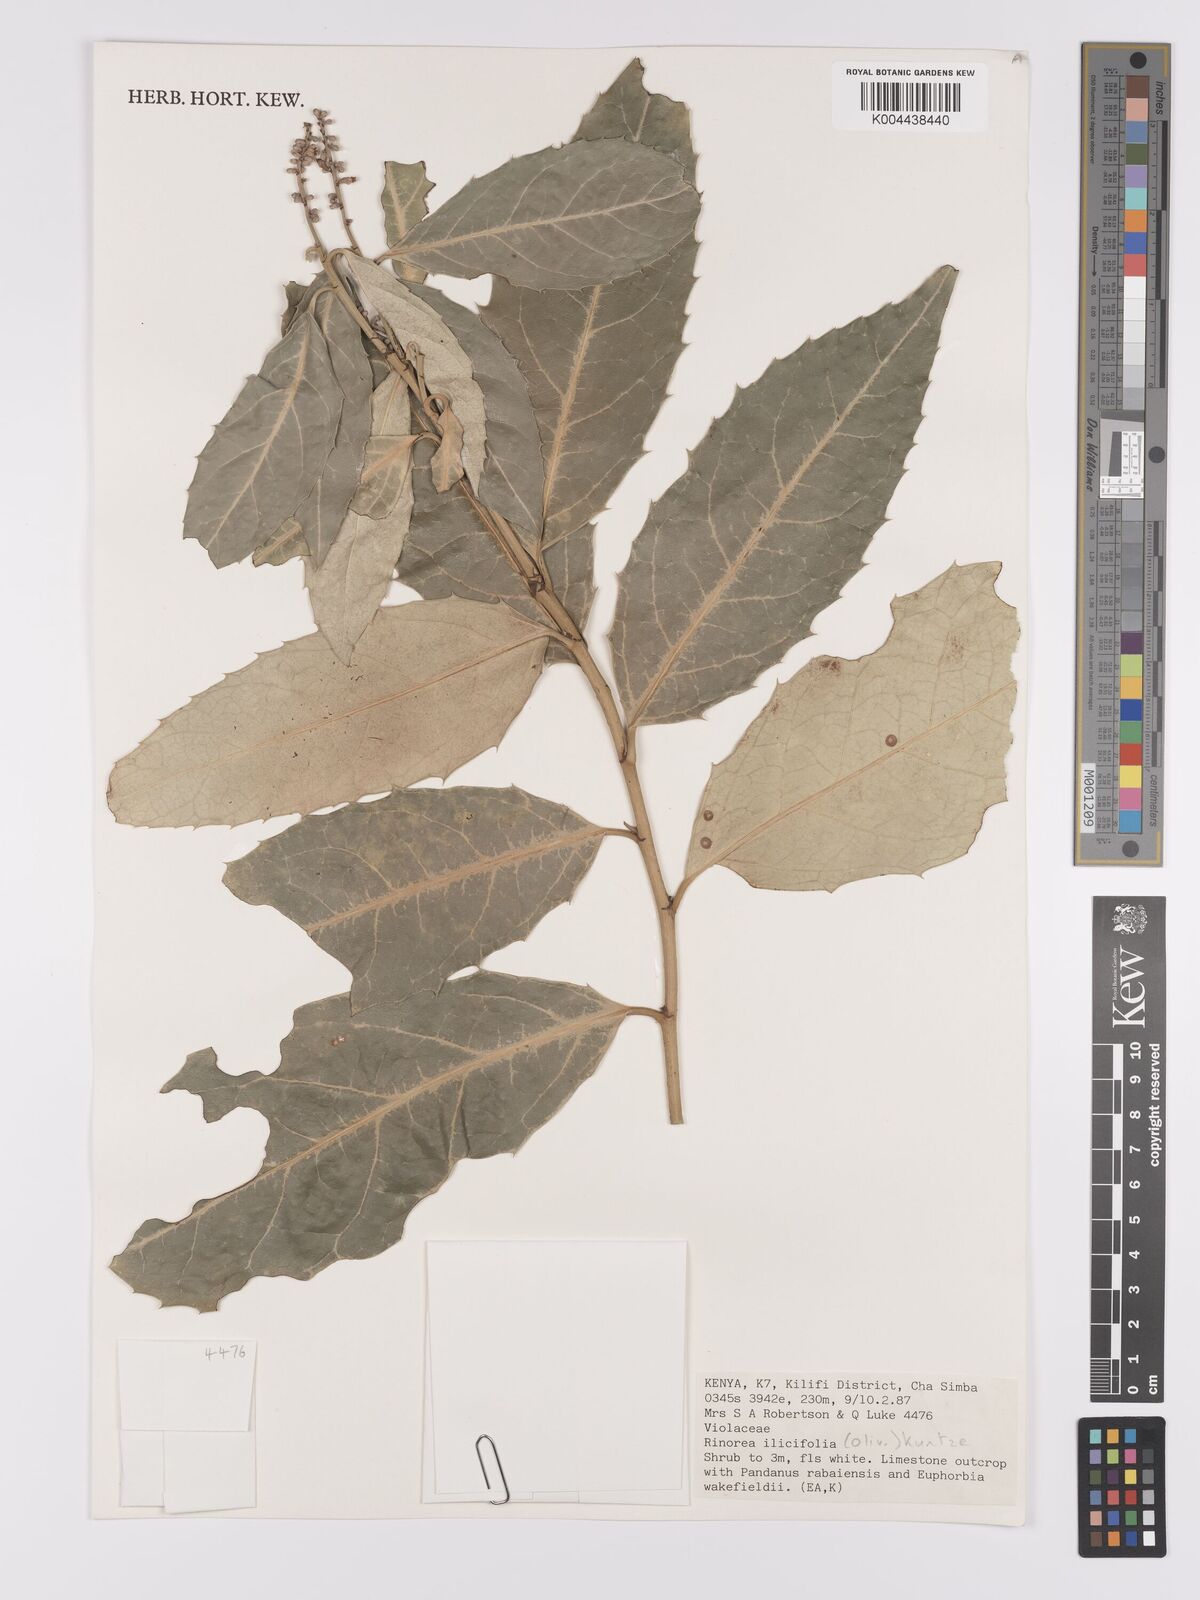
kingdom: Plantae
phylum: Tracheophyta
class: Magnoliopsida
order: Malpighiales
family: Violaceae
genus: Rinorea
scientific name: Rinorea ilicifolia
